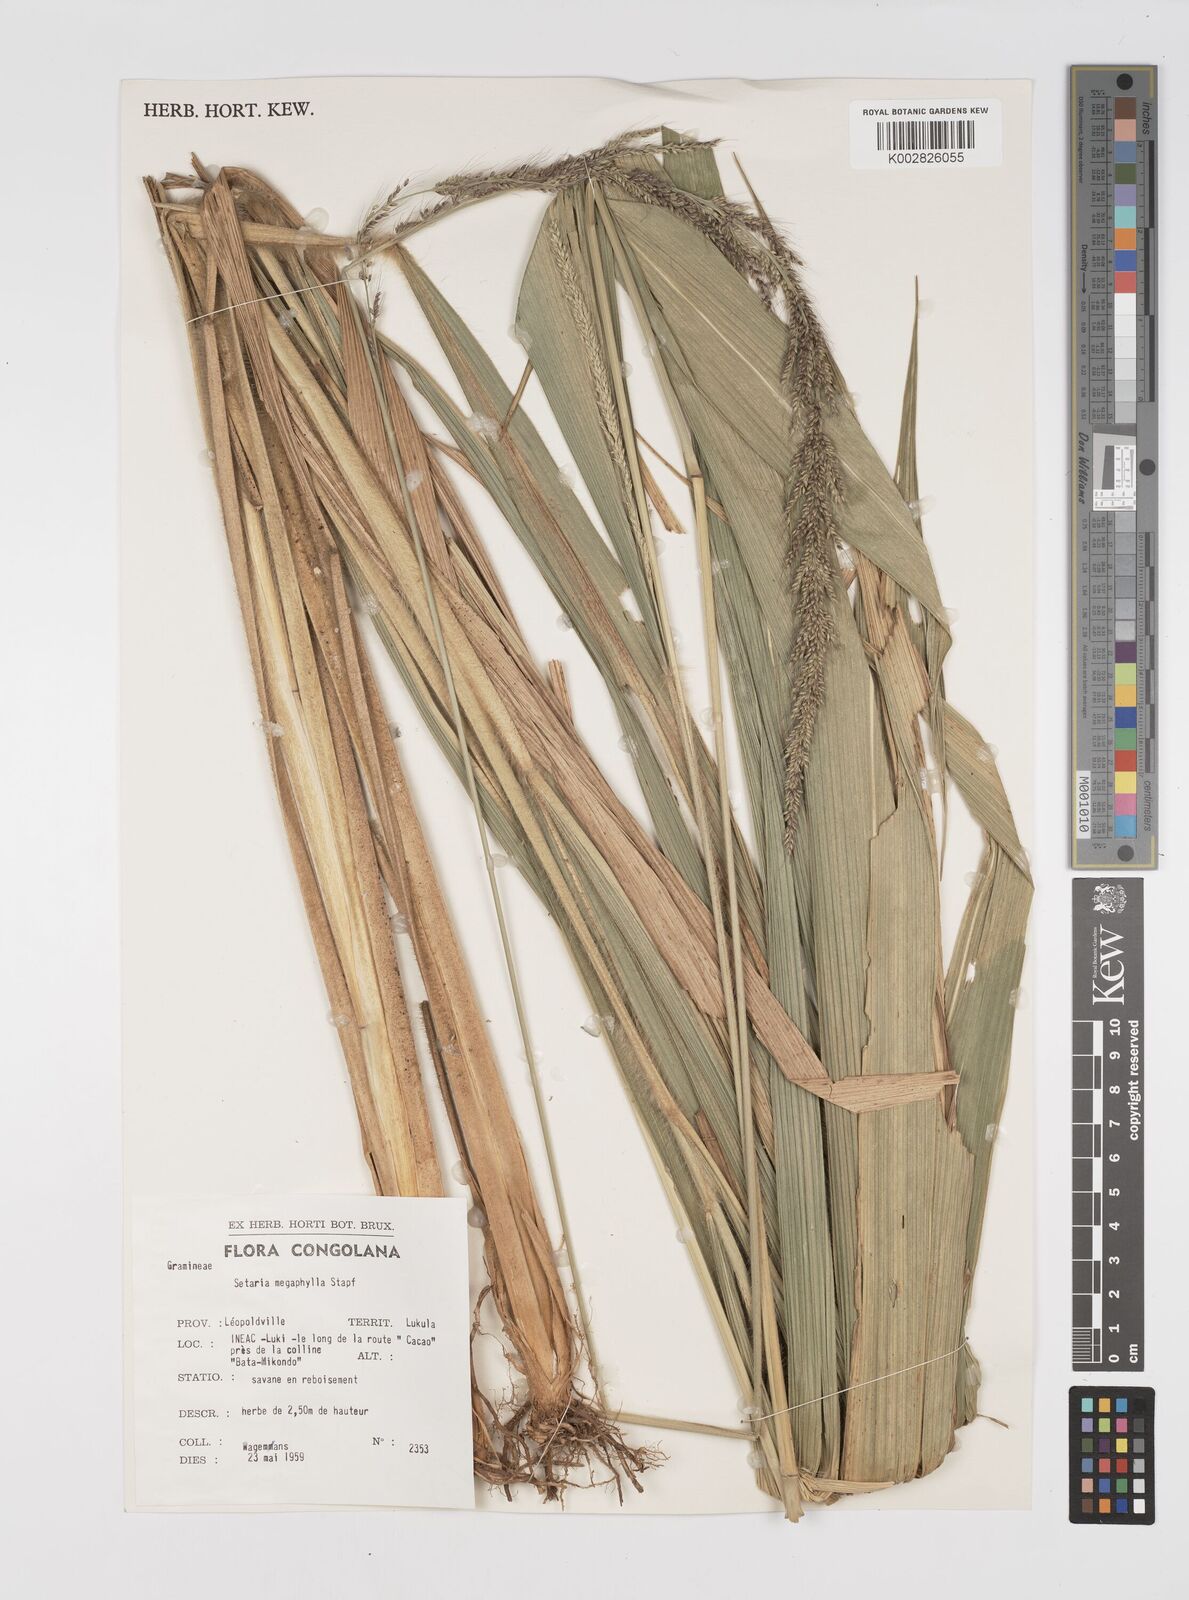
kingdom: Plantae
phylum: Tracheophyta
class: Liliopsida
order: Poales
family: Poaceae
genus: Setaria
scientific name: Setaria megaphylla
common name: Bigleaf bristlegrass
